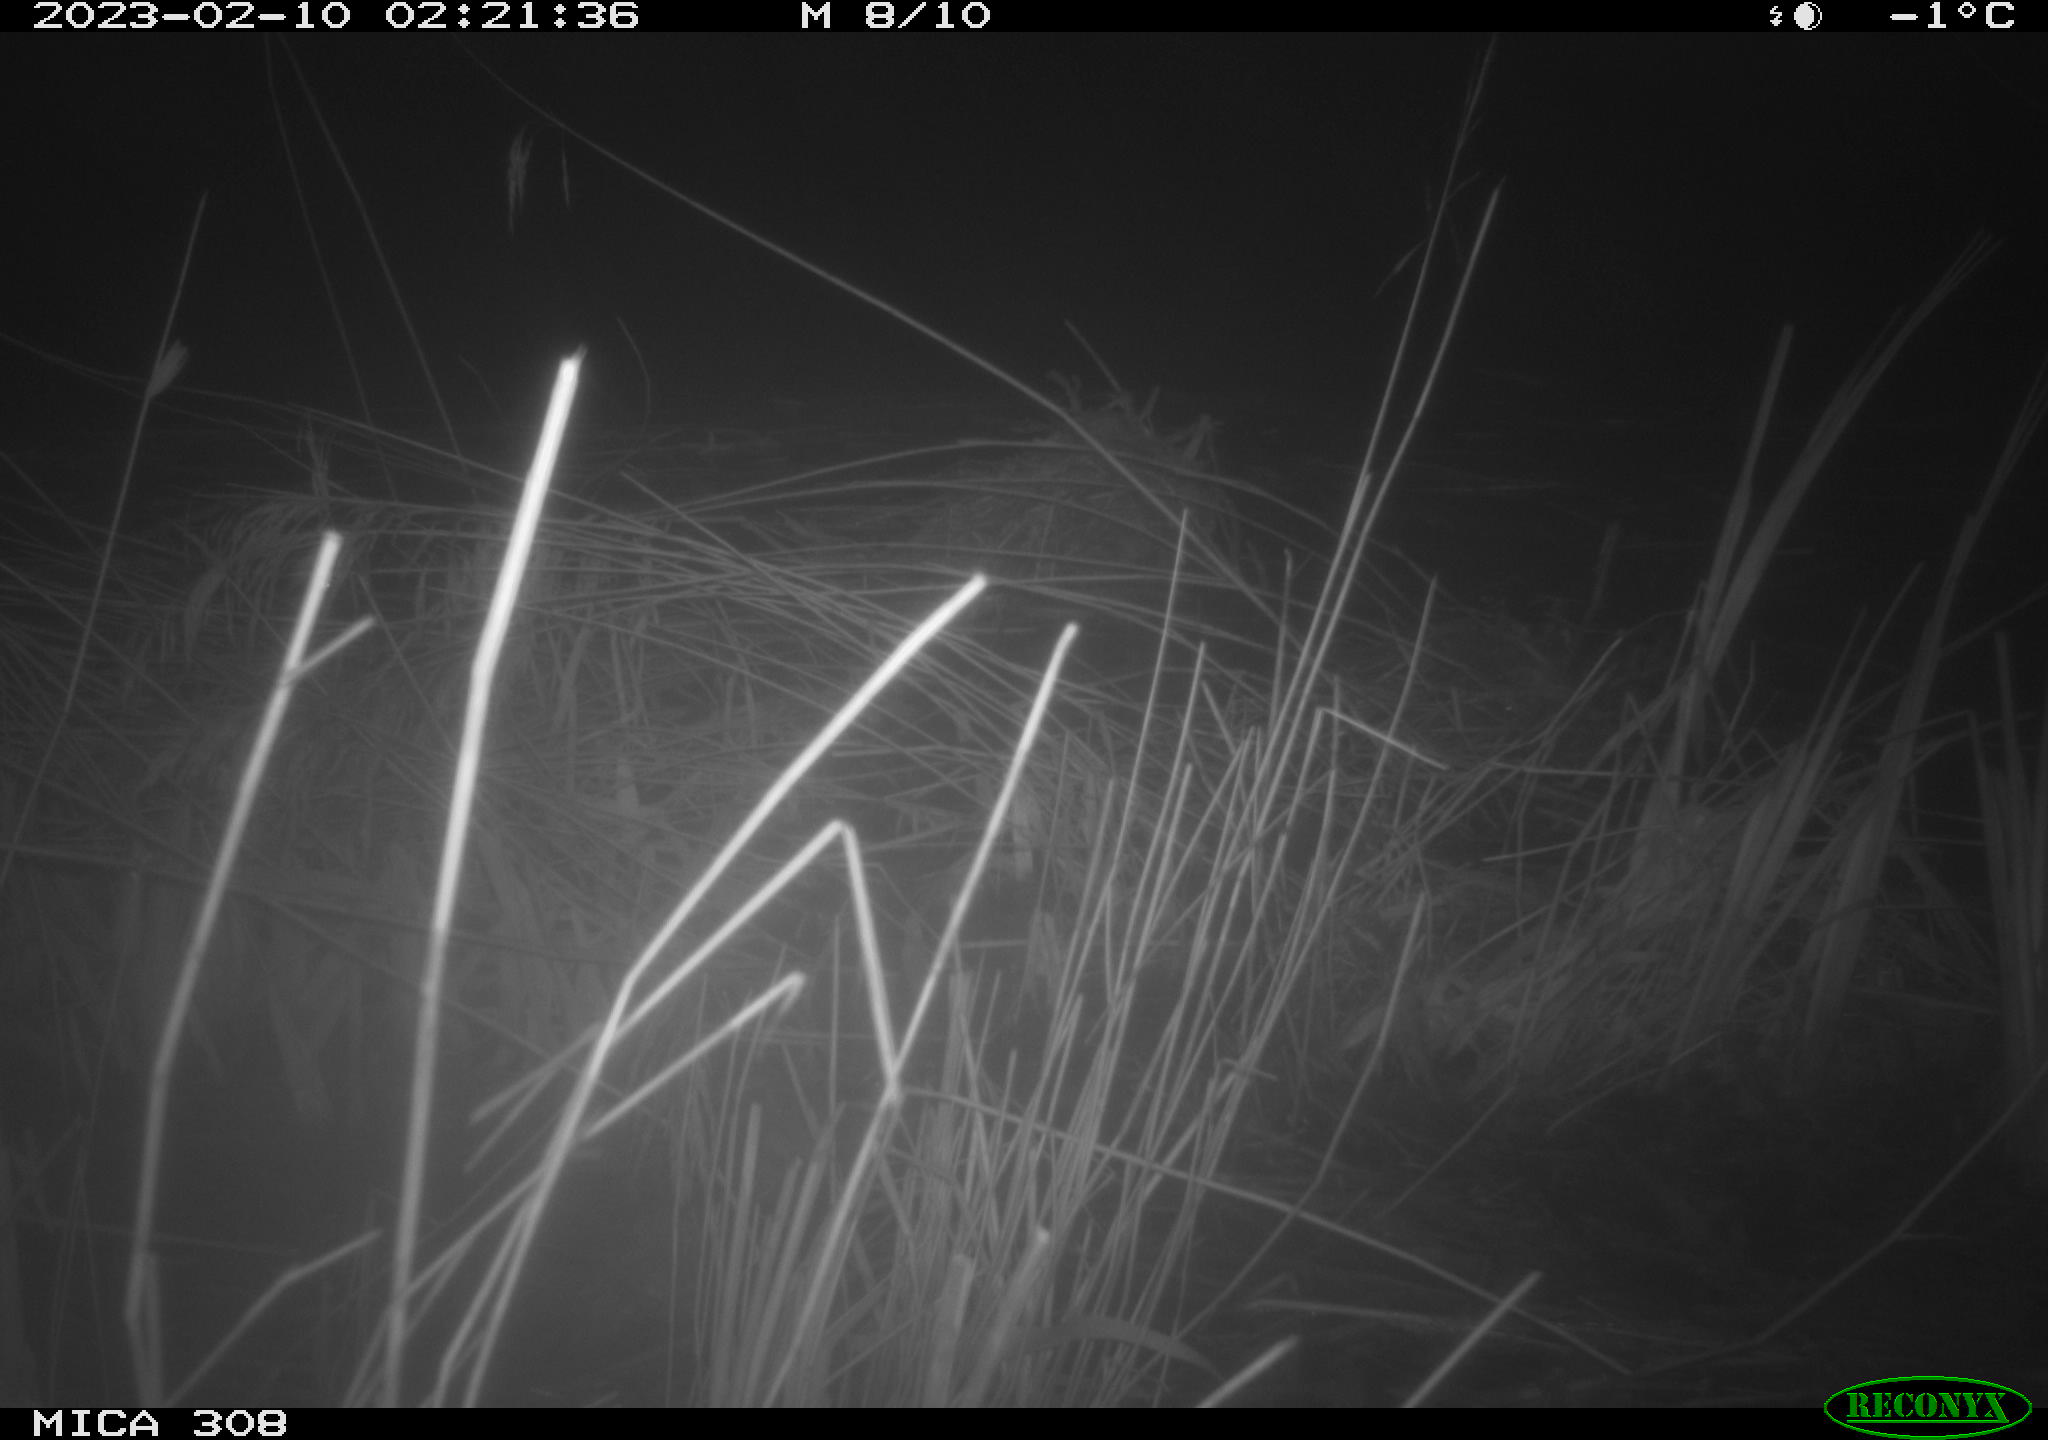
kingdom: Animalia
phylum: Chordata
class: Mammalia
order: Rodentia
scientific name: Rodentia
